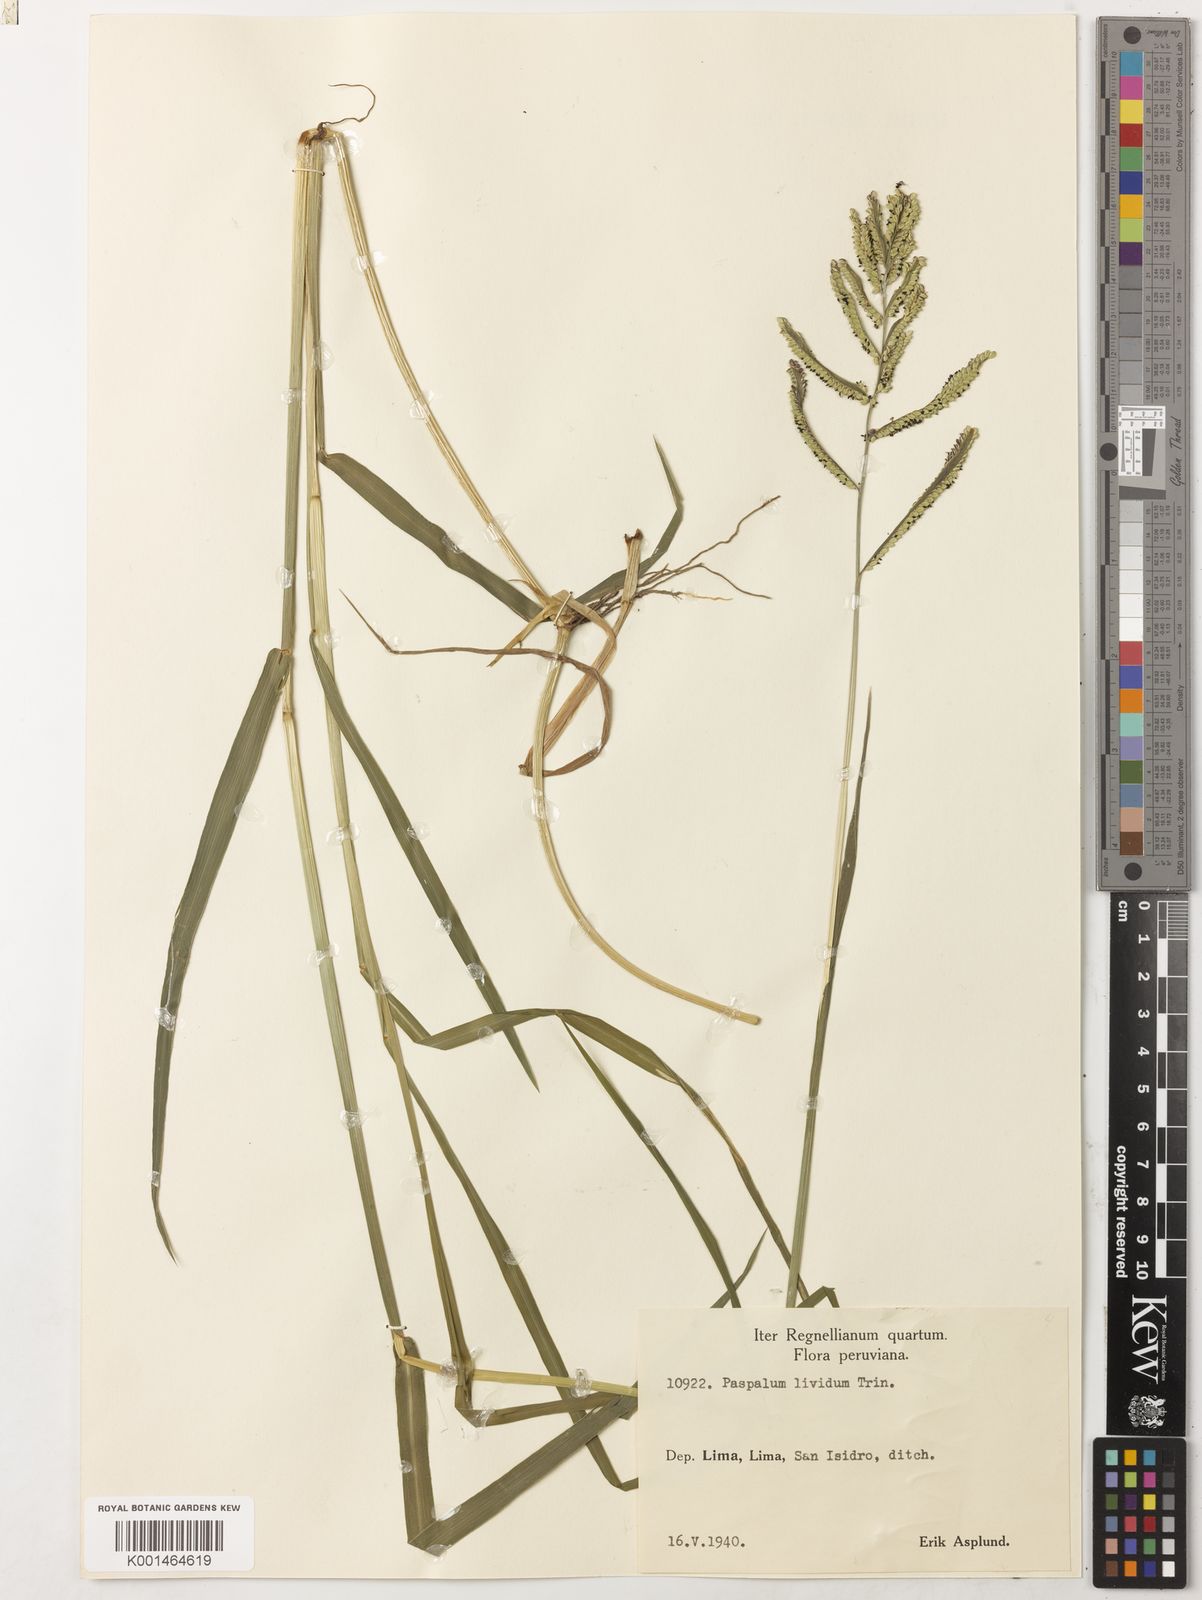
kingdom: Plantae
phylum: Tracheophyta
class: Liliopsida
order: Poales
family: Poaceae
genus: Paspalum
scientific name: Paspalum denticulatum
